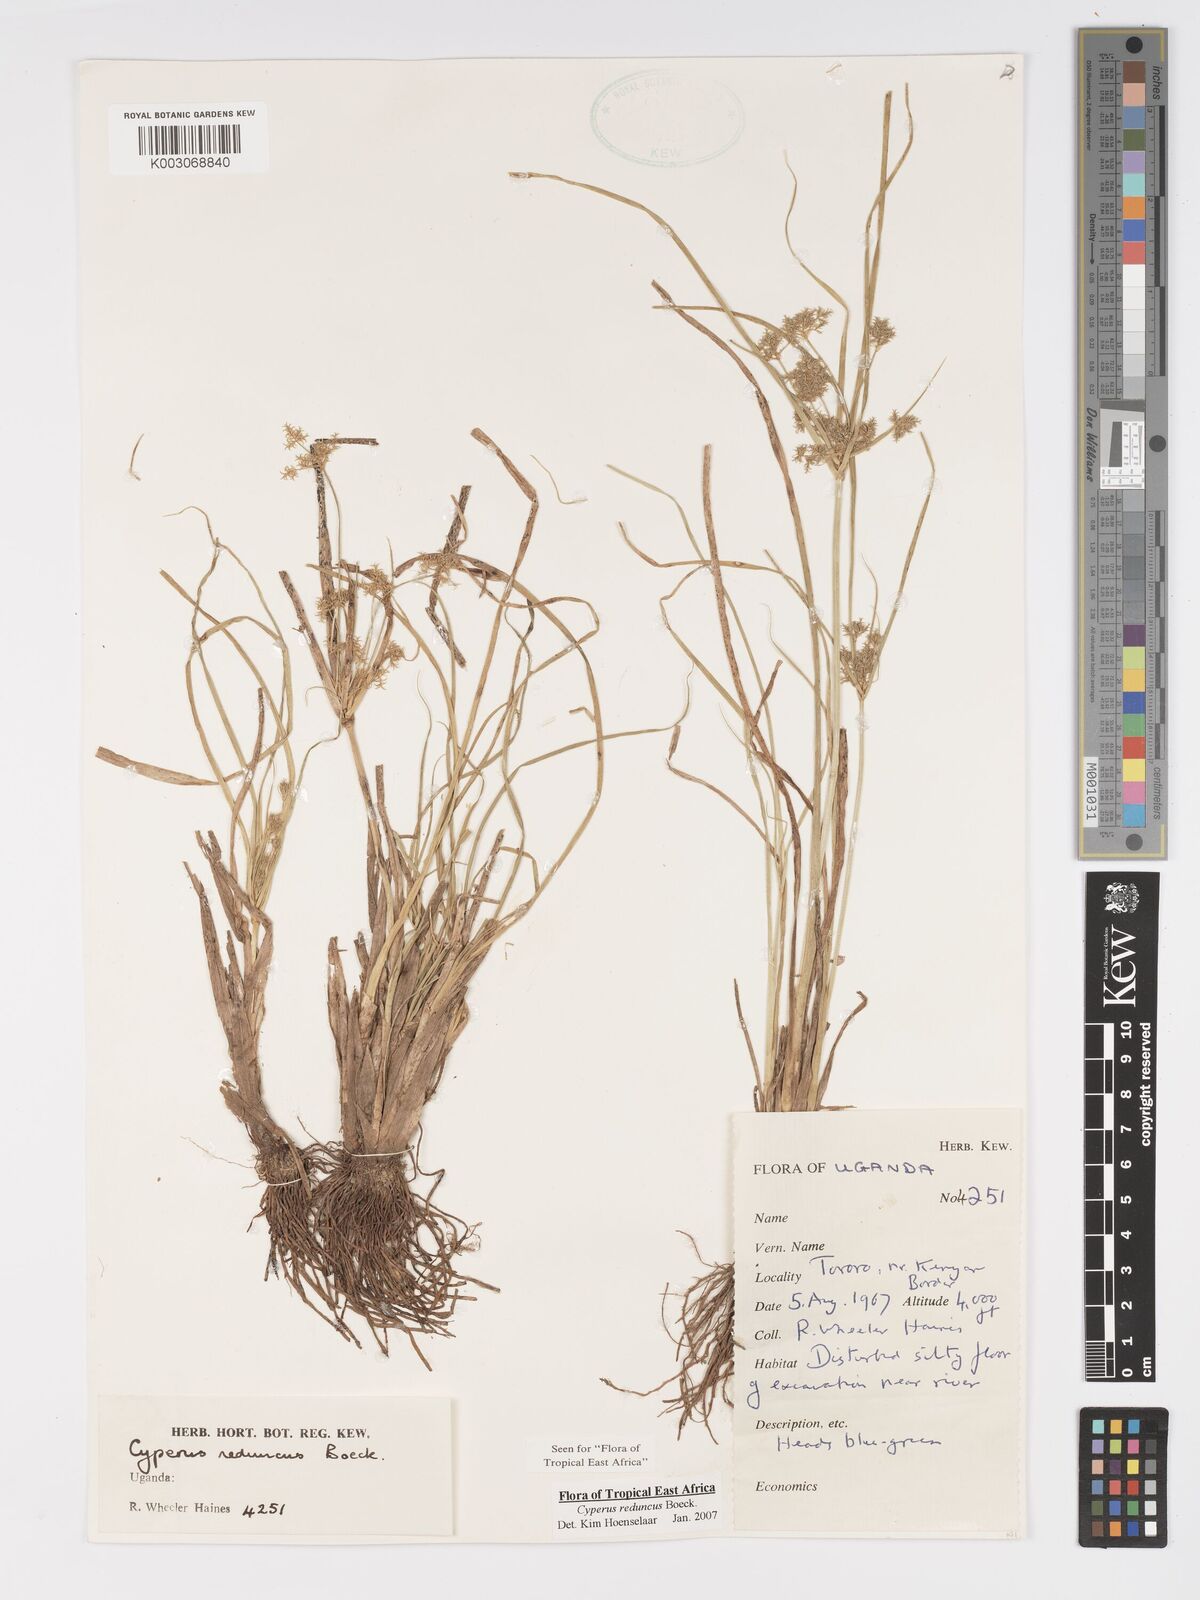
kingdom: Plantae
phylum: Tracheophyta
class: Liliopsida
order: Poales
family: Cyperaceae
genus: Cyperus
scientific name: Cyperus reduncus
